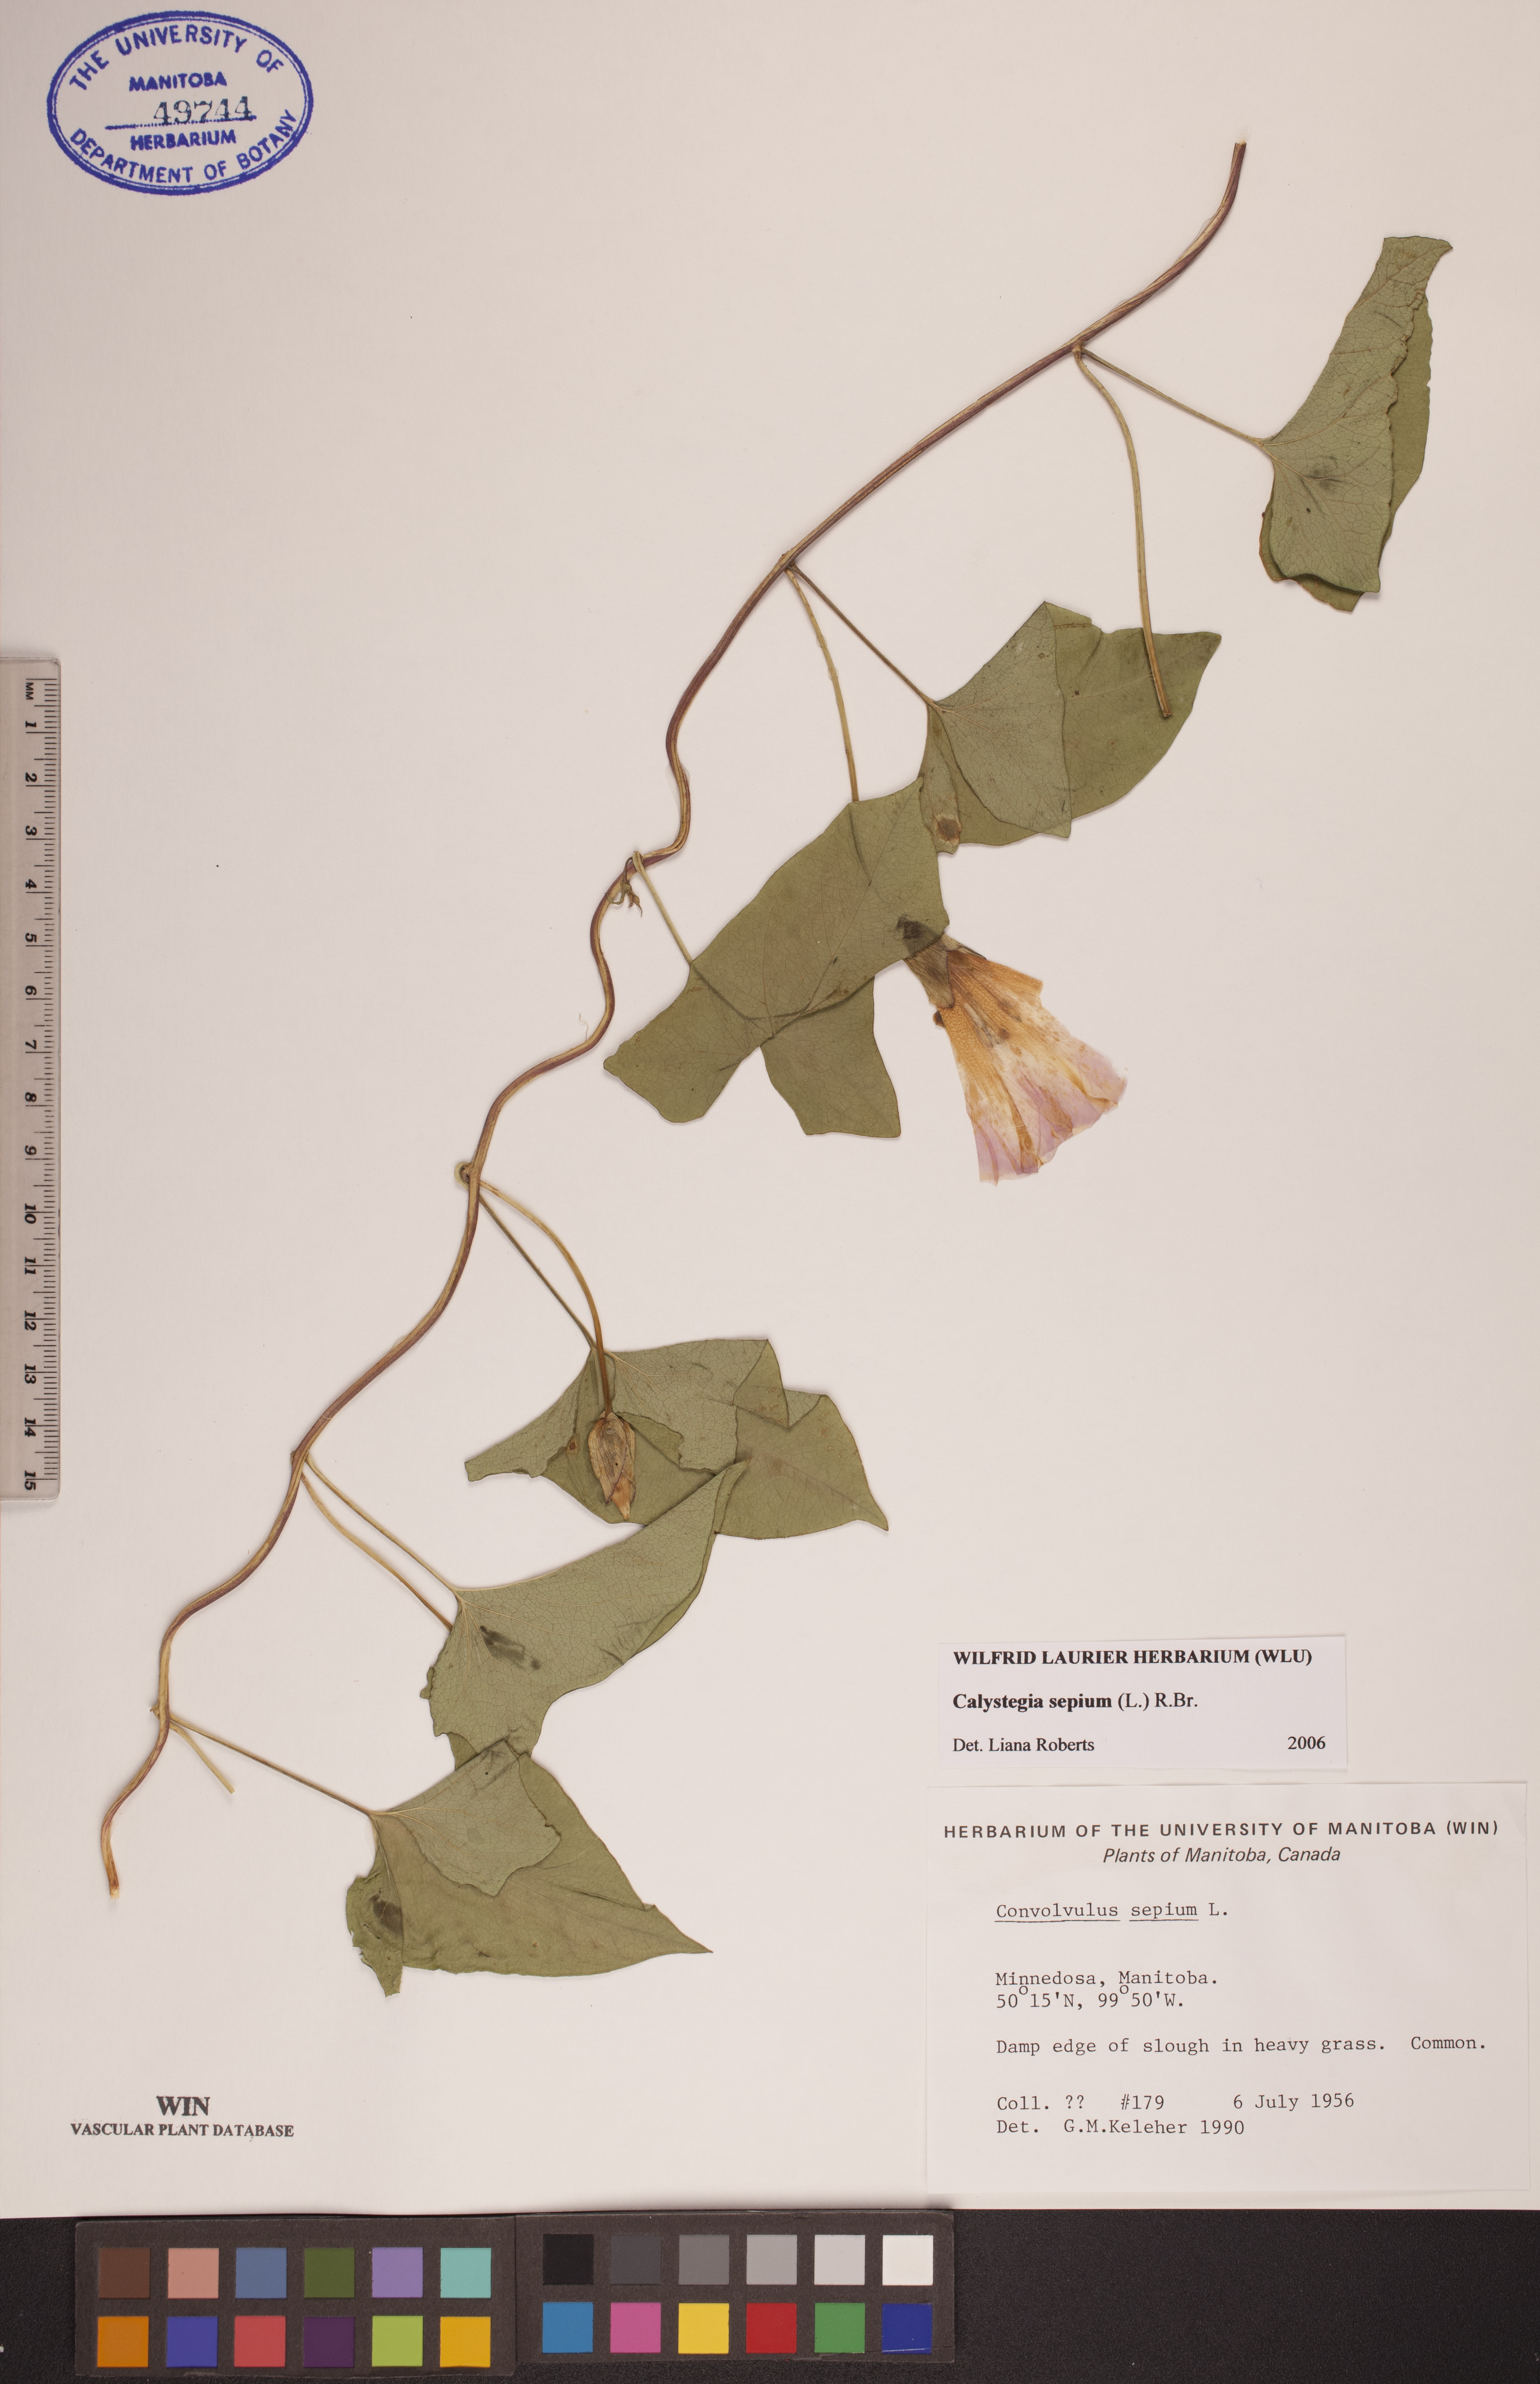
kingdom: Plantae
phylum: Tracheophyta
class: Magnoliopsida
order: Solanales
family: Convolvulaceae
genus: Calystegia
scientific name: Calystegia sepium
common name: Hedge bindweed
